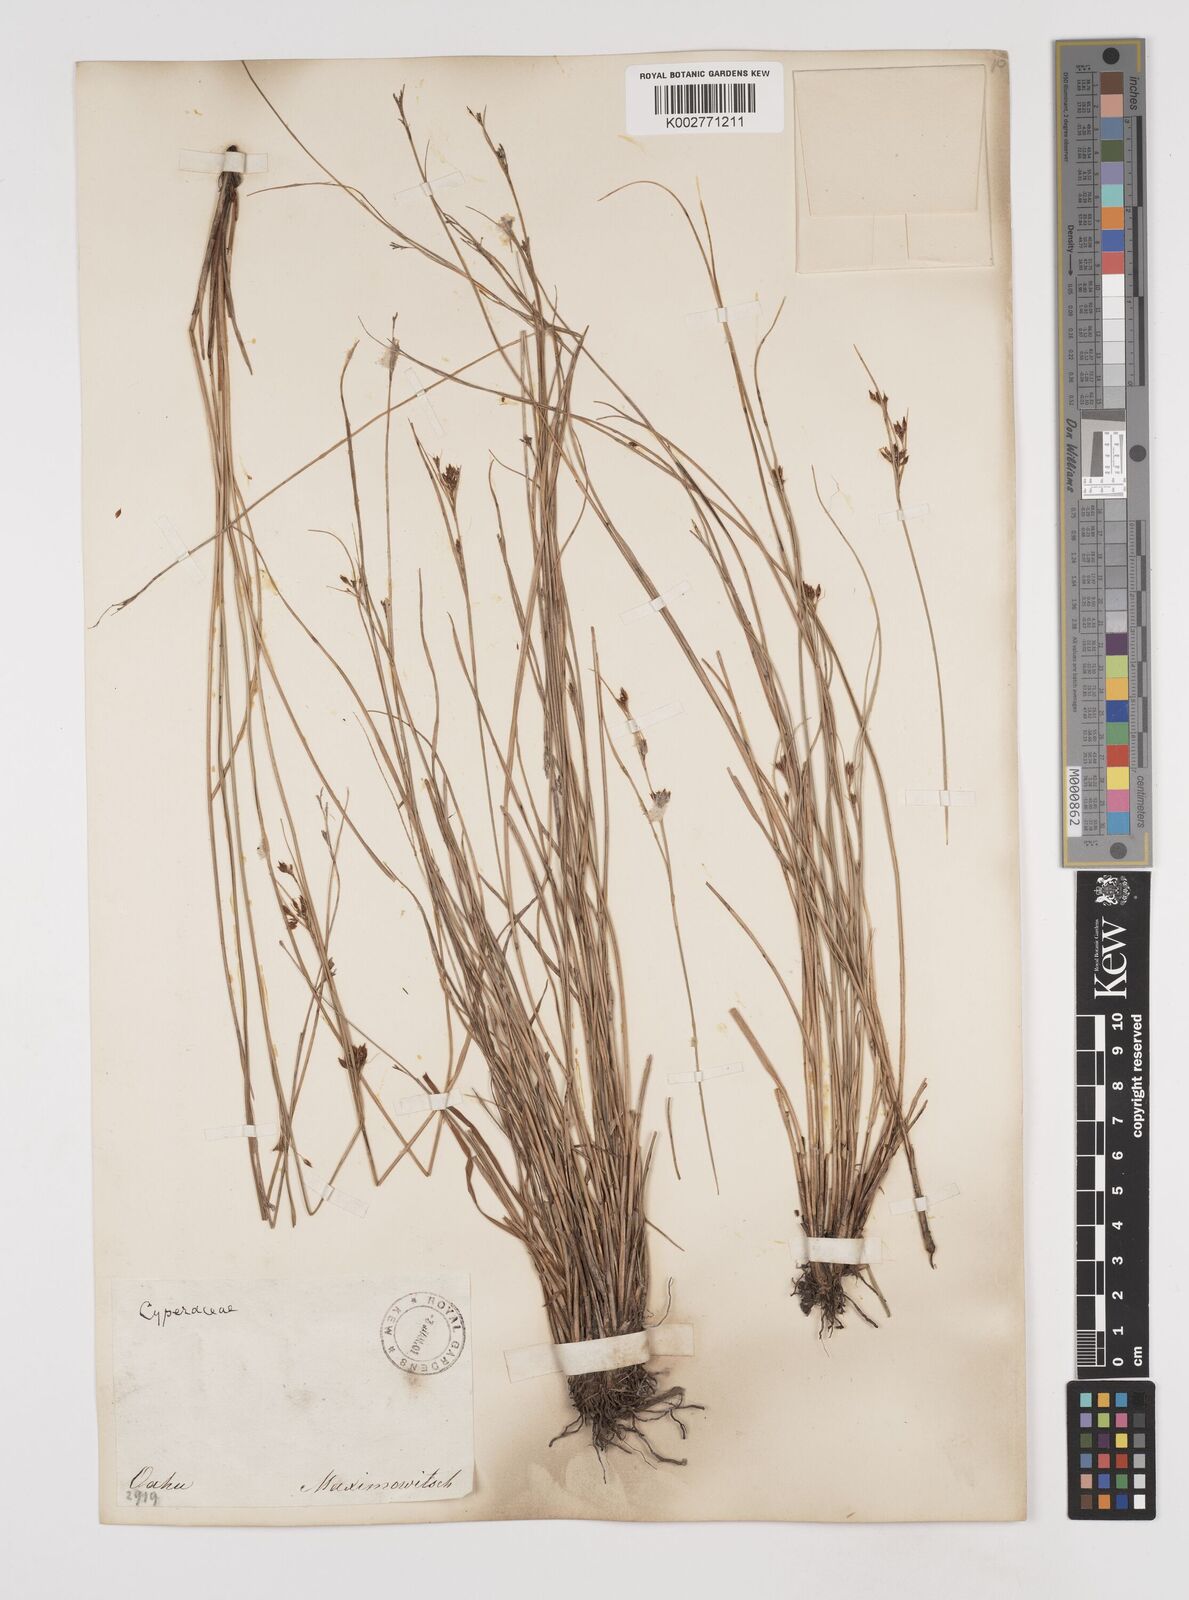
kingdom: Plantae
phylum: Tracheophyta
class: Liliopsida
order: Poales
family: Cyperaceae
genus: Rhynchospora
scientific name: Rhynchospora rugosa
